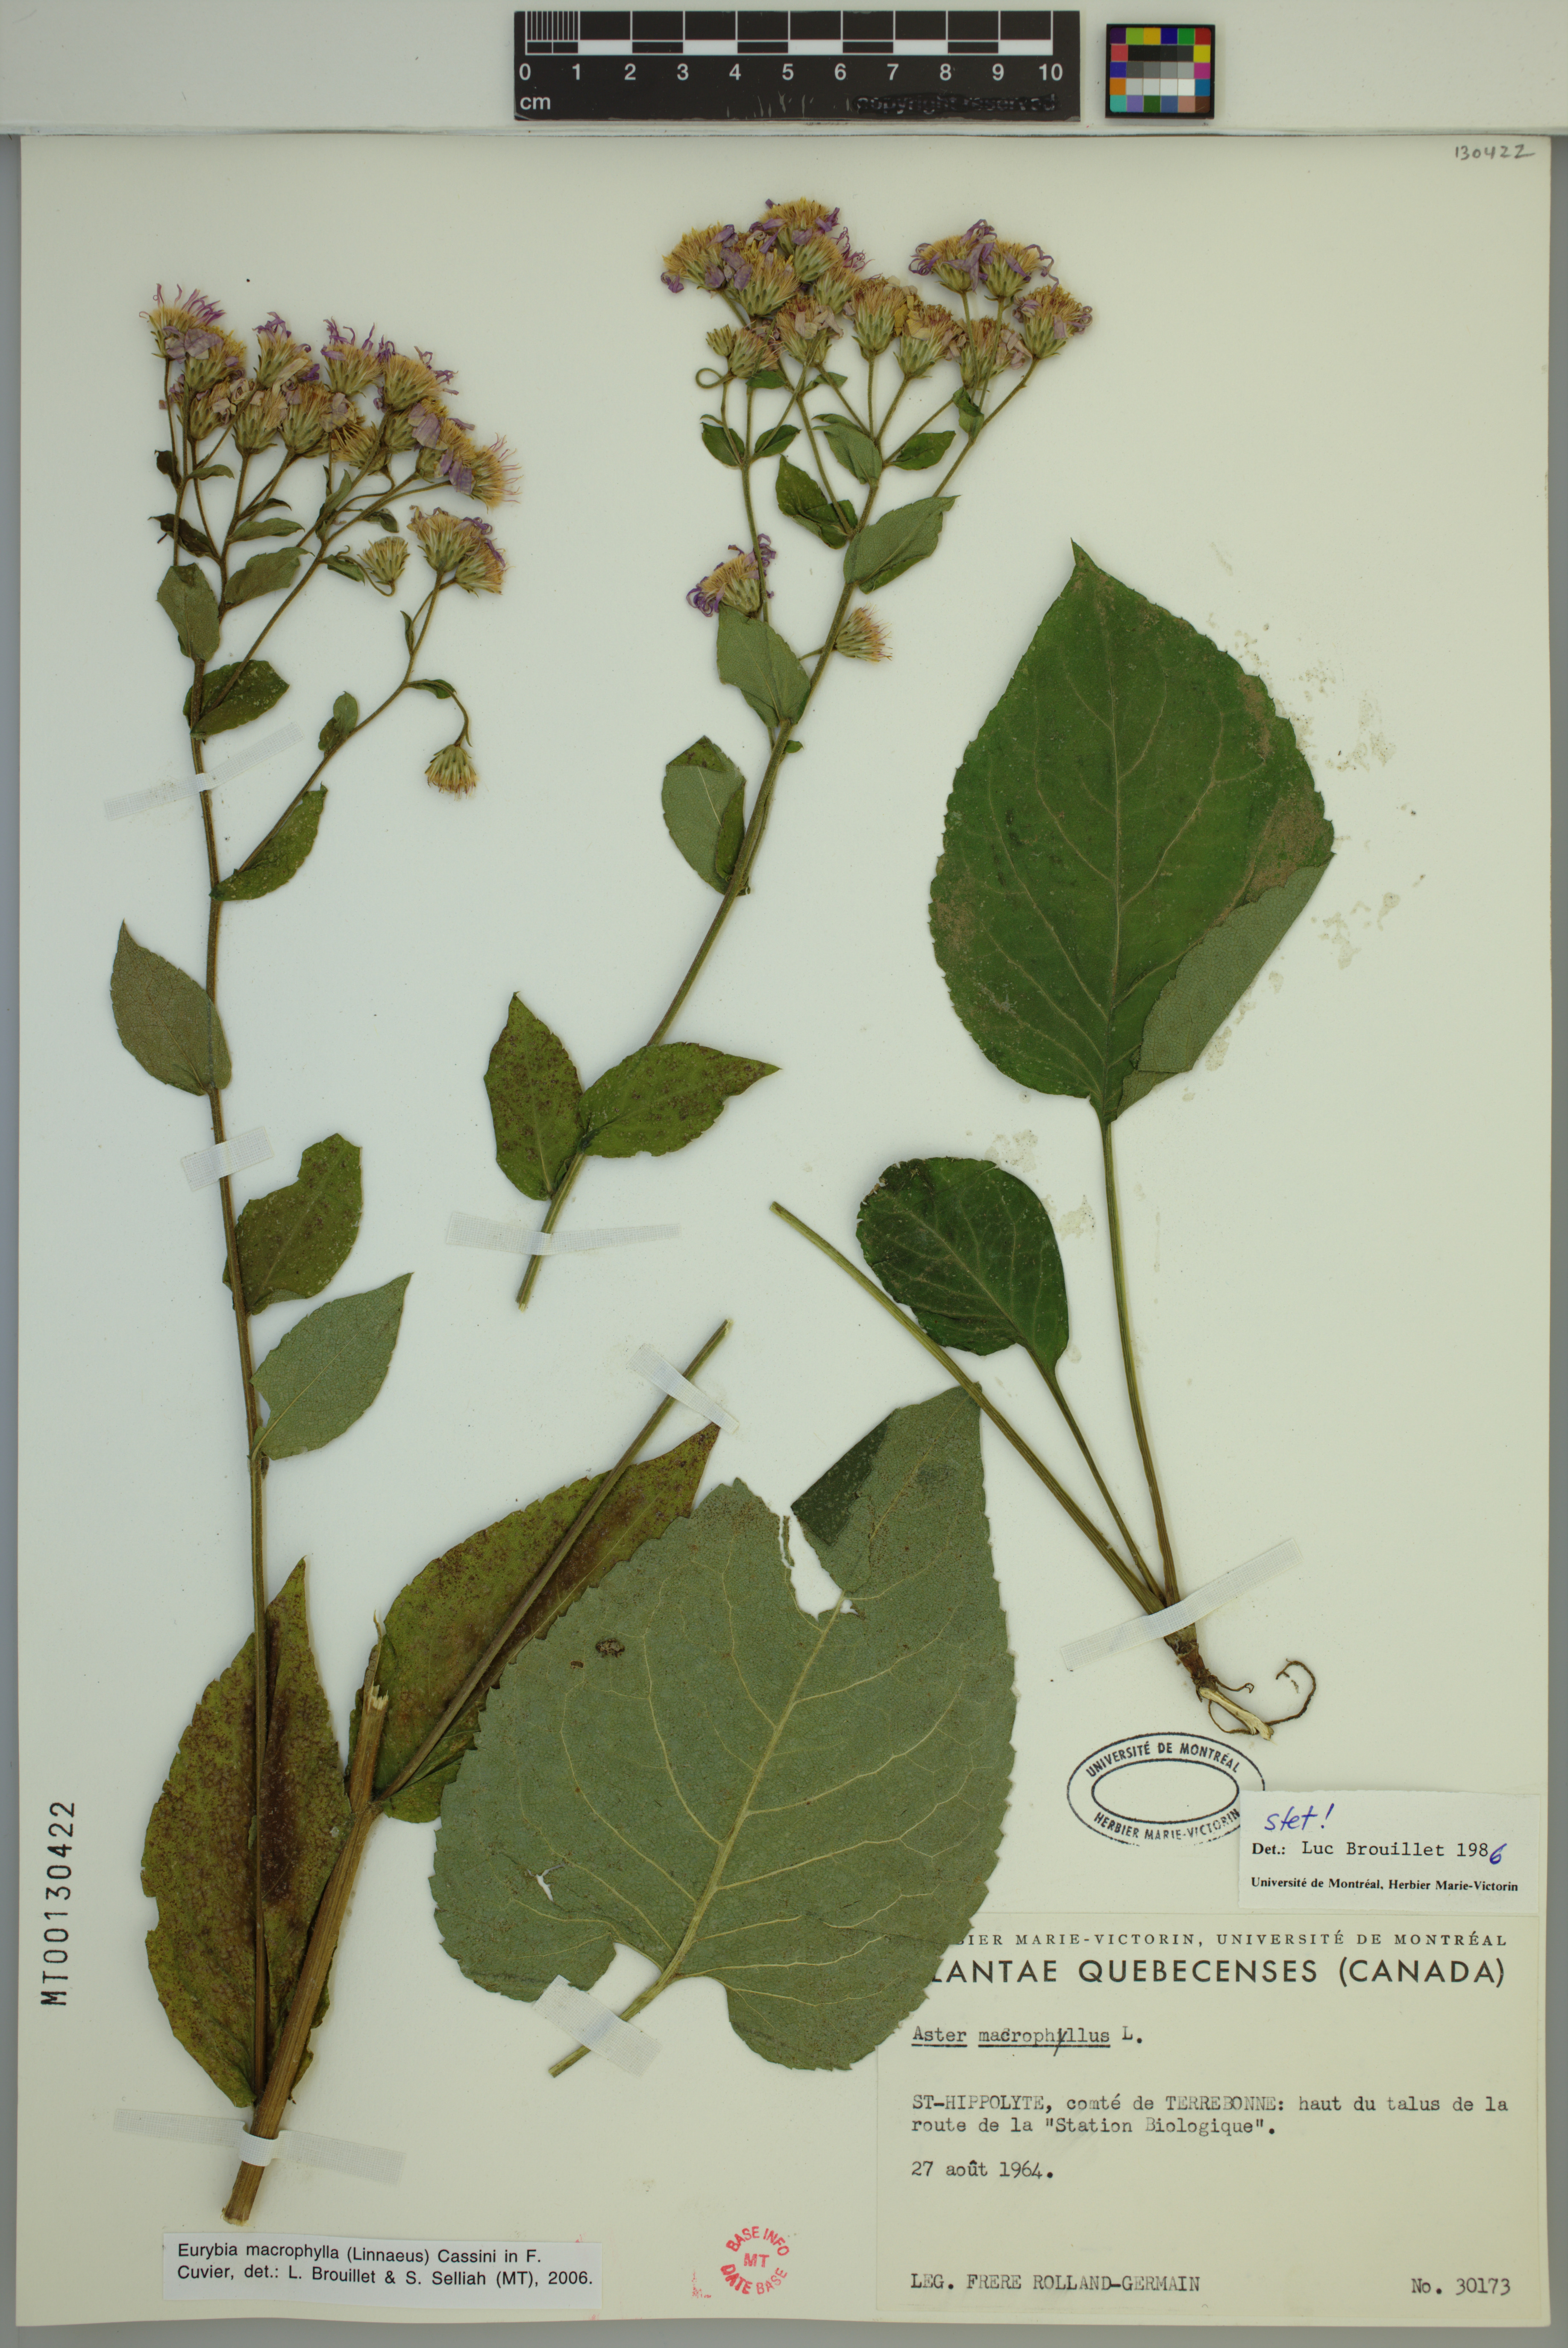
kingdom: Plantae
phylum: Tracheophyta
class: Magnoliopsida
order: Asterales
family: Asteraceae
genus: Eurybia
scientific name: Eurybia macrophylla
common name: Big-leaved aster
